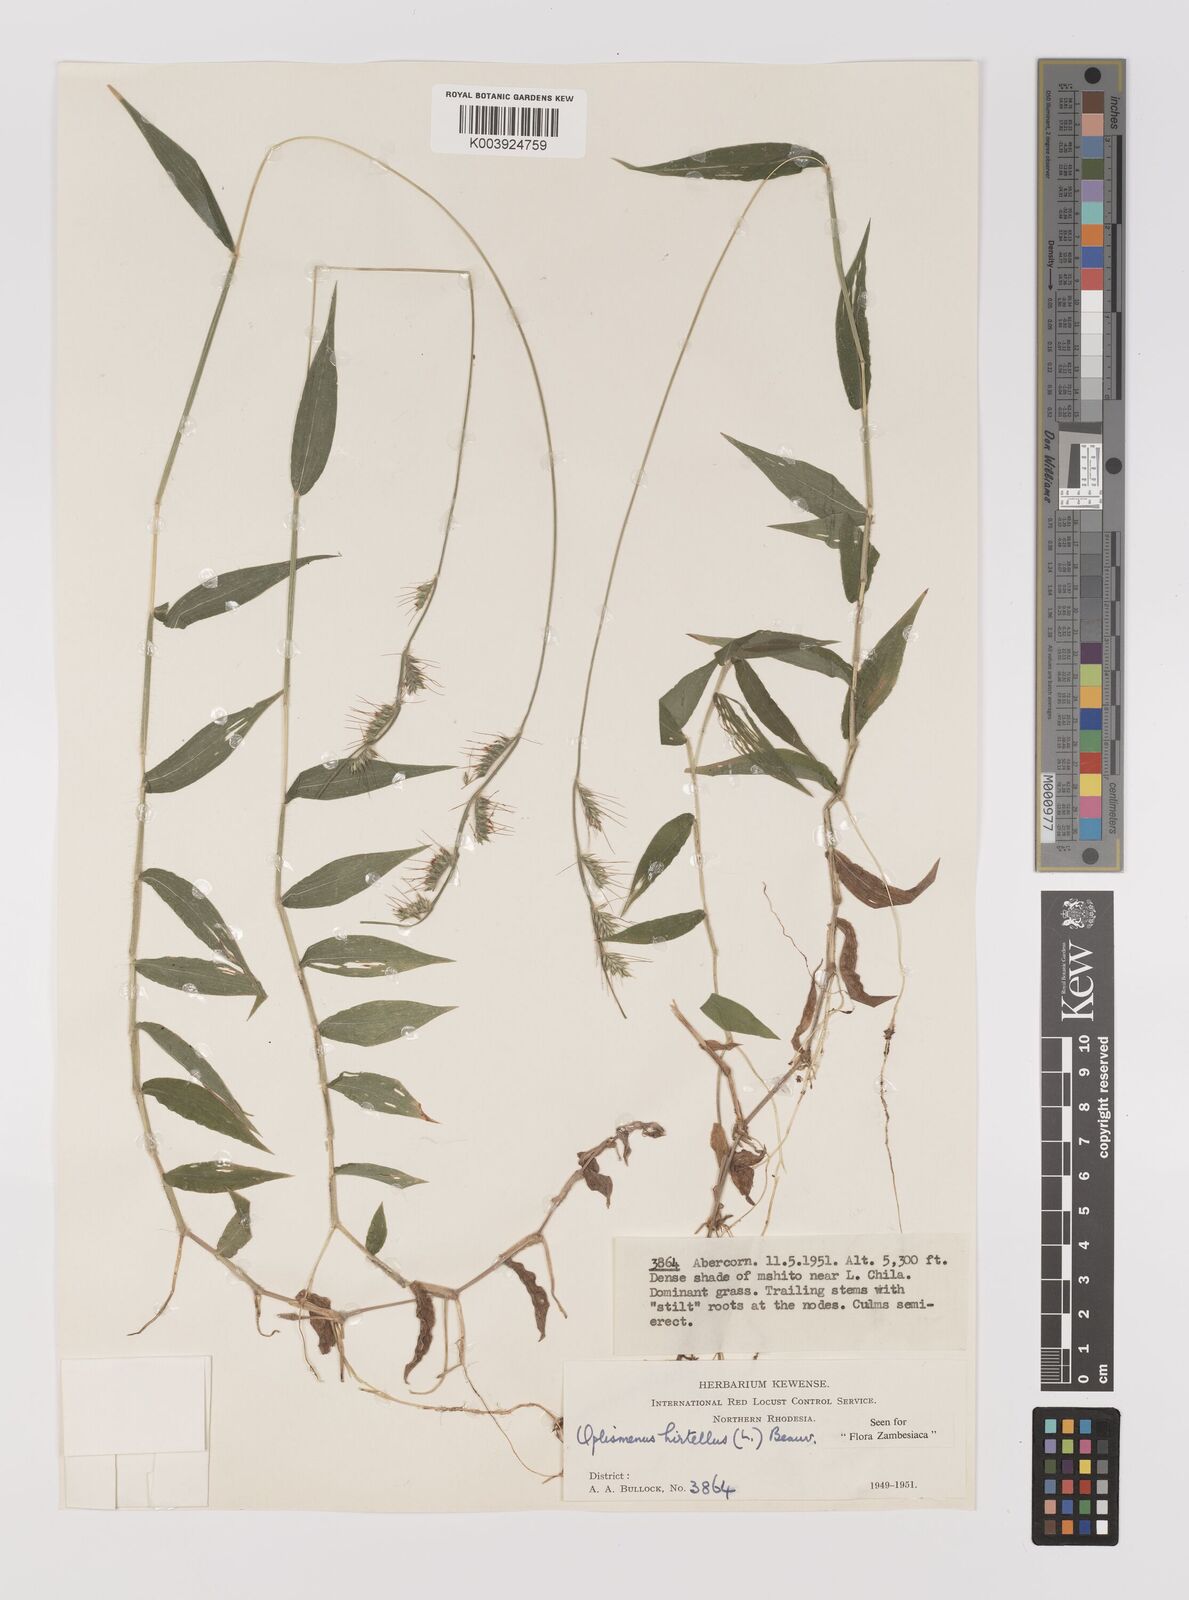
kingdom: Plantae
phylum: Tracheophyta
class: Liliopsida
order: Poales
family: Poaceae
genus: Oplismenus
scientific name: Oplismenus hirtellus
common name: Basketgrass
